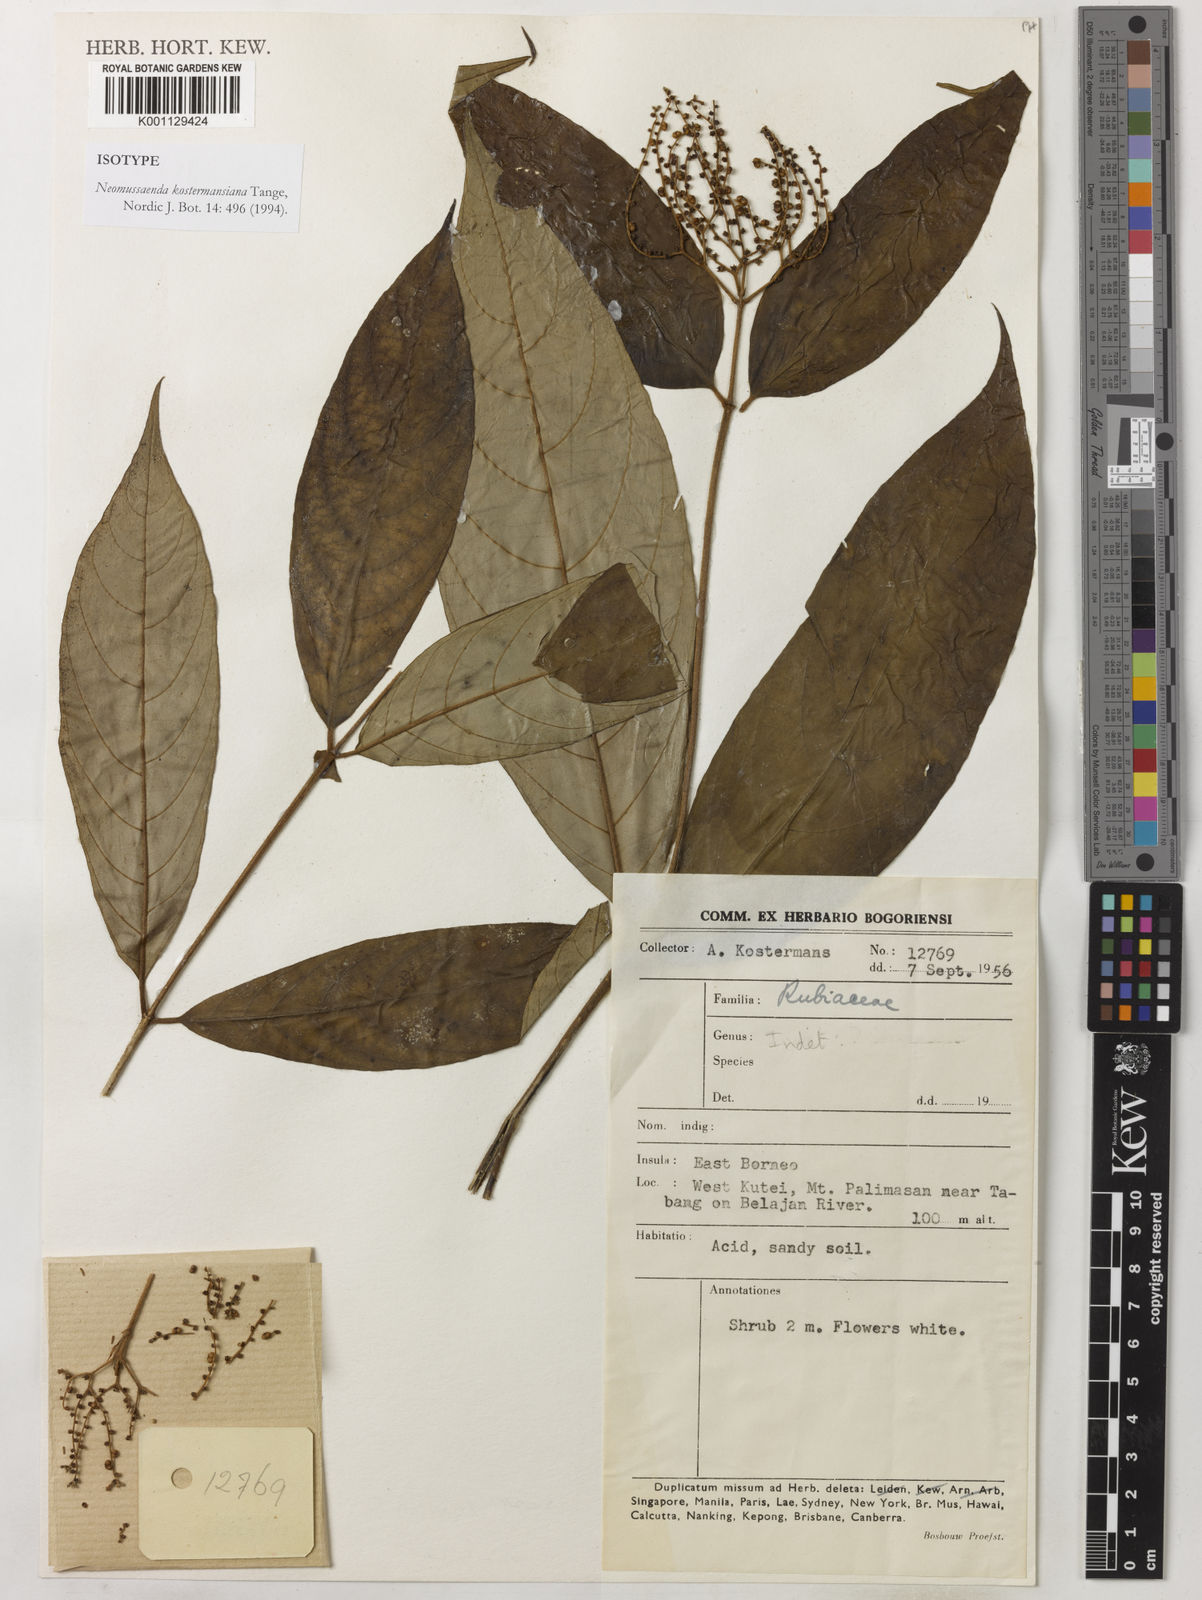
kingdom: Plantae
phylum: Tracheophyta
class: Magnoliopsida
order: Gentianales
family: Rubiaceae
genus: Neomussaenda
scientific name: Neomussaenda kostermansiana
